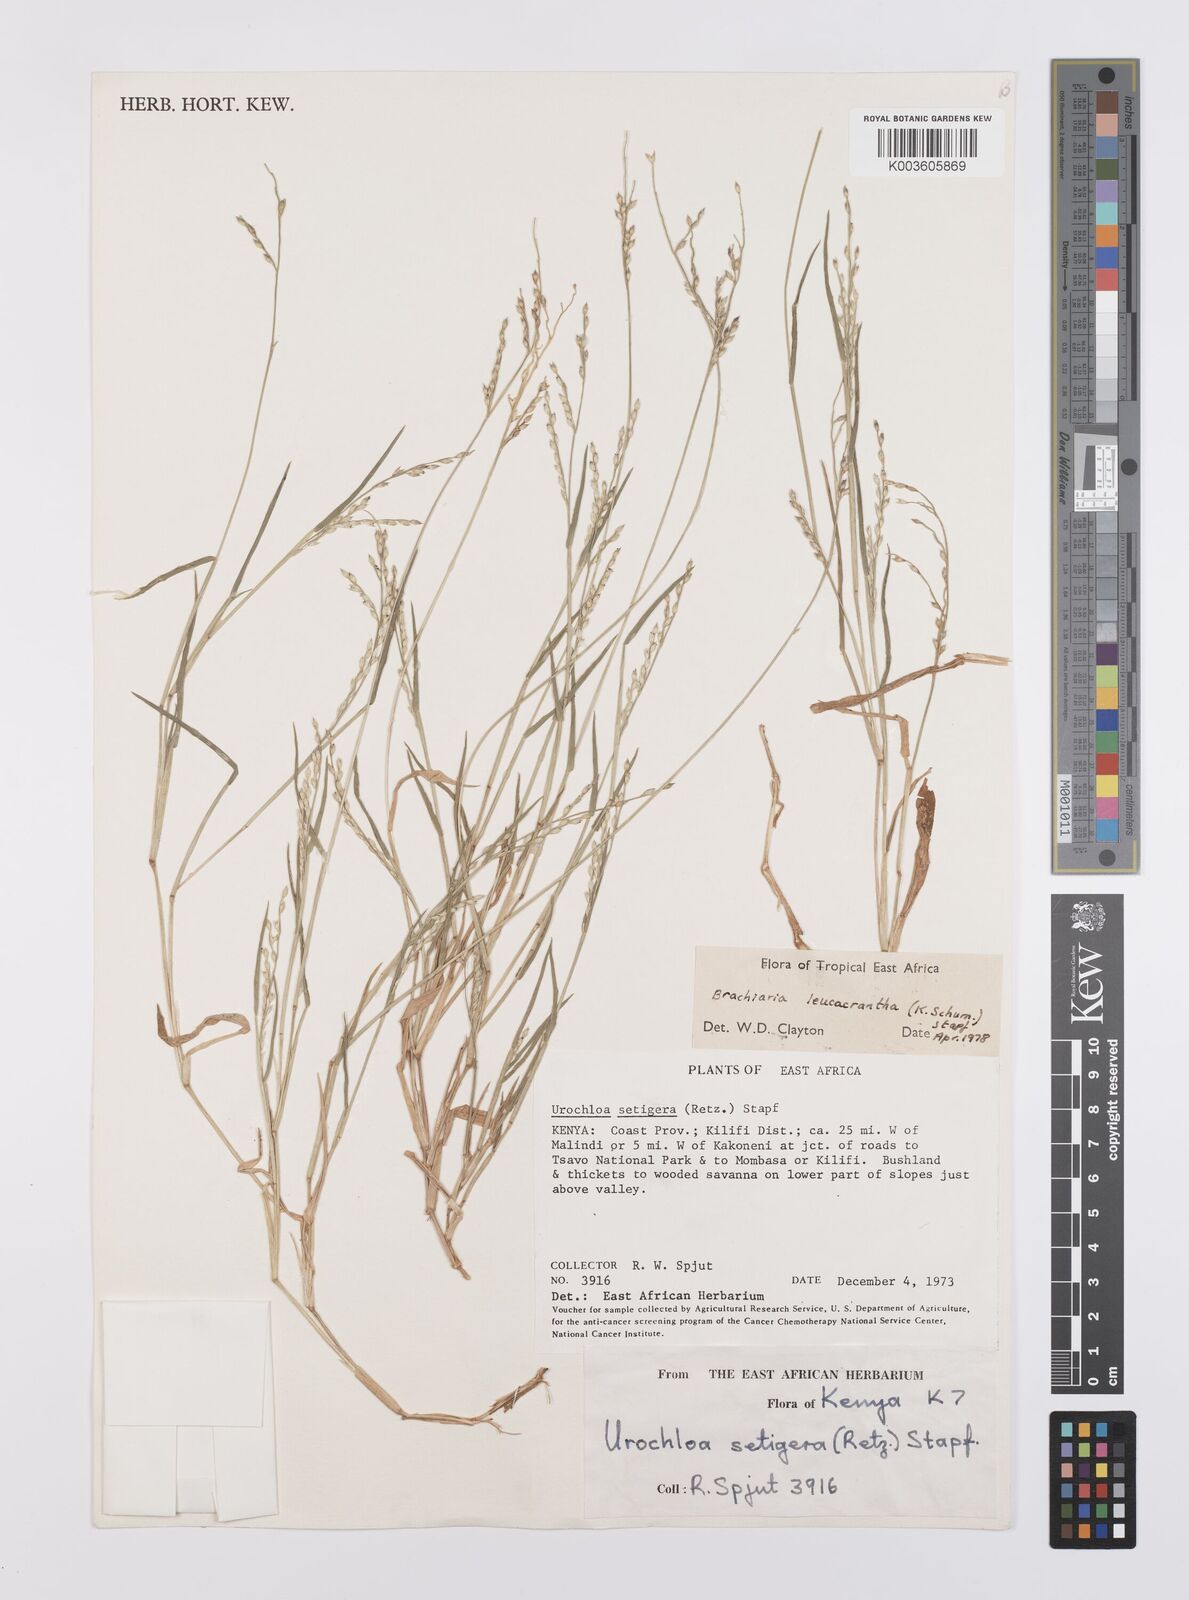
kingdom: Plantae
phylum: Tracheophyta
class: Liliopsida
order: Poales
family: Poaceae
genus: Urochloa
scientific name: Urochloa xantholeuca
